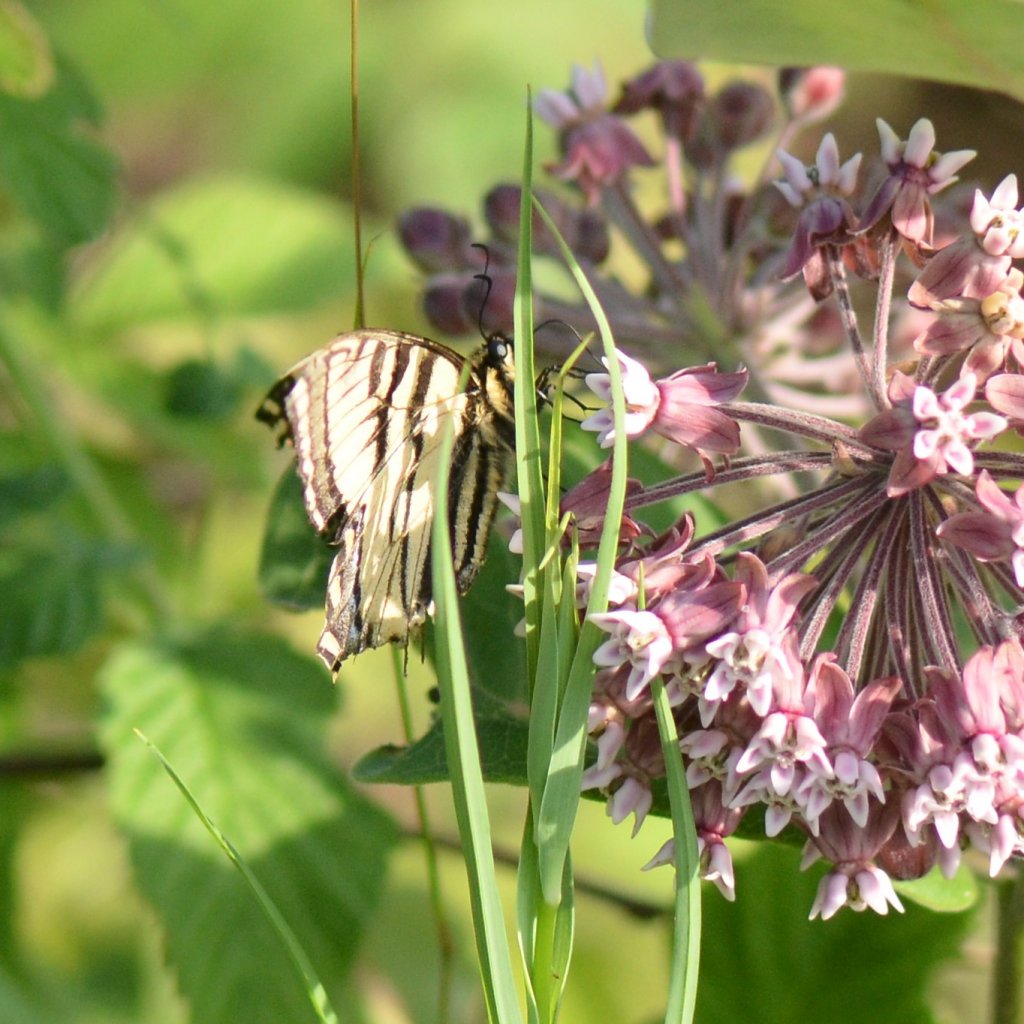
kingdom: Animalia
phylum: Arthropoda
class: Insecta
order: Lepidoptera
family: Papilionidae
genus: Pterourus
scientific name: Pterourus canadensis
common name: Canadian Tiger Swallowtail
